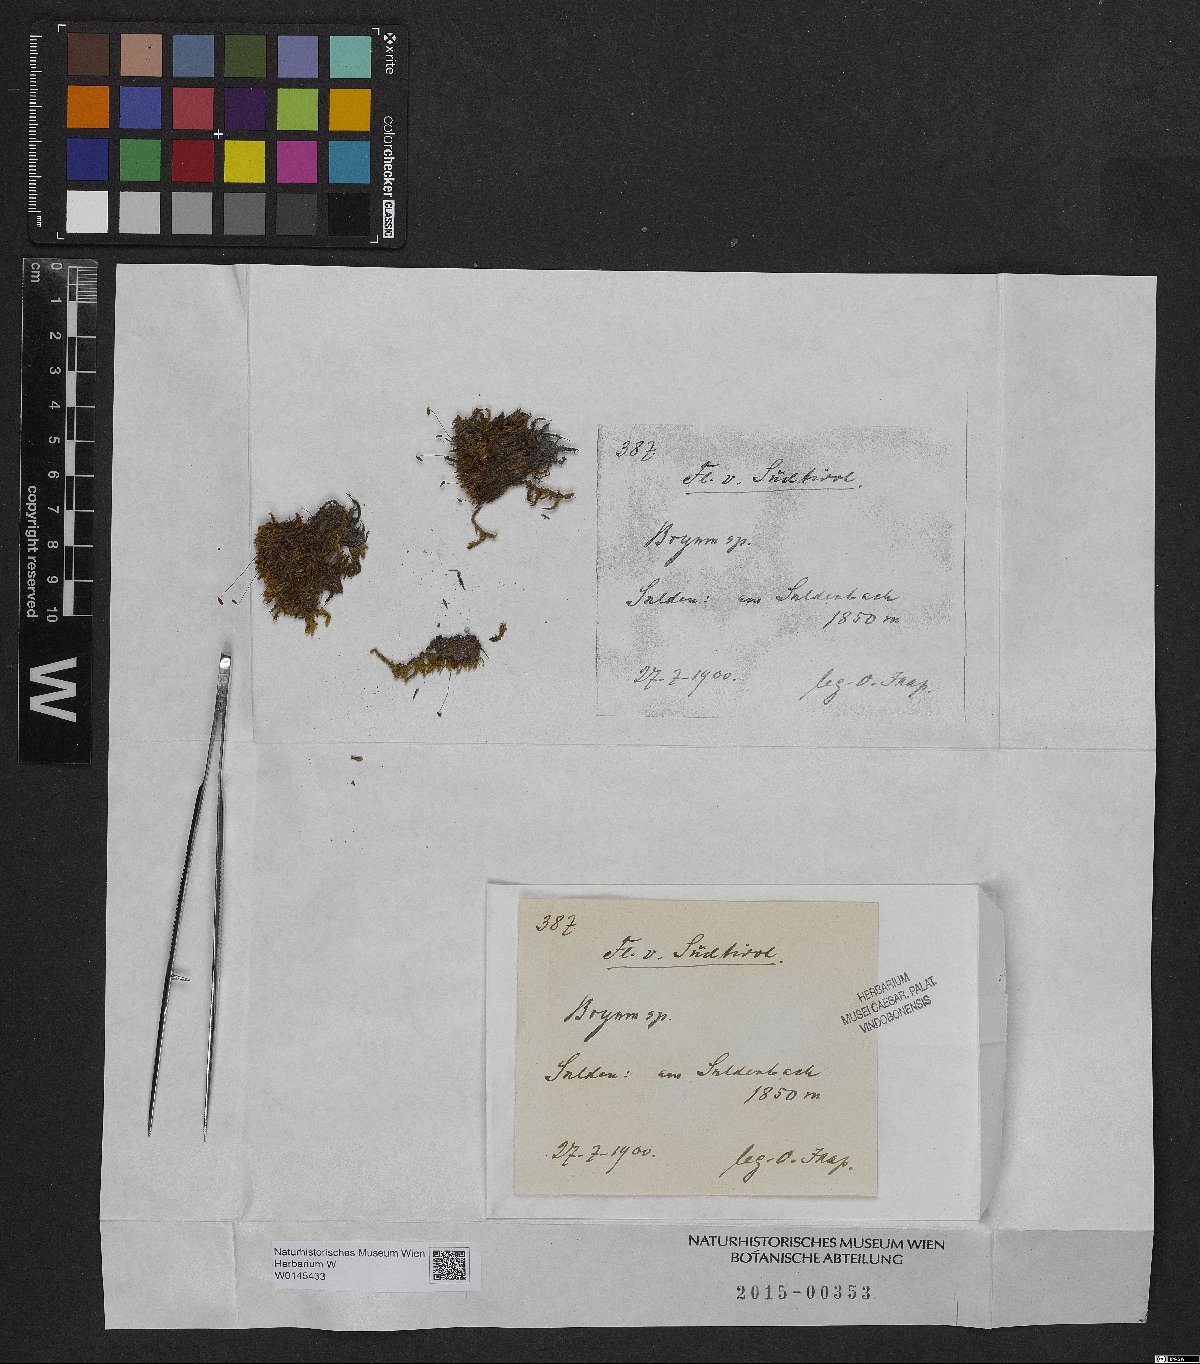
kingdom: Plantae
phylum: Bryophyta
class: Bryopsida
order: Bryales
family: Bryaceae
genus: Bryum
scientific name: Bryum
